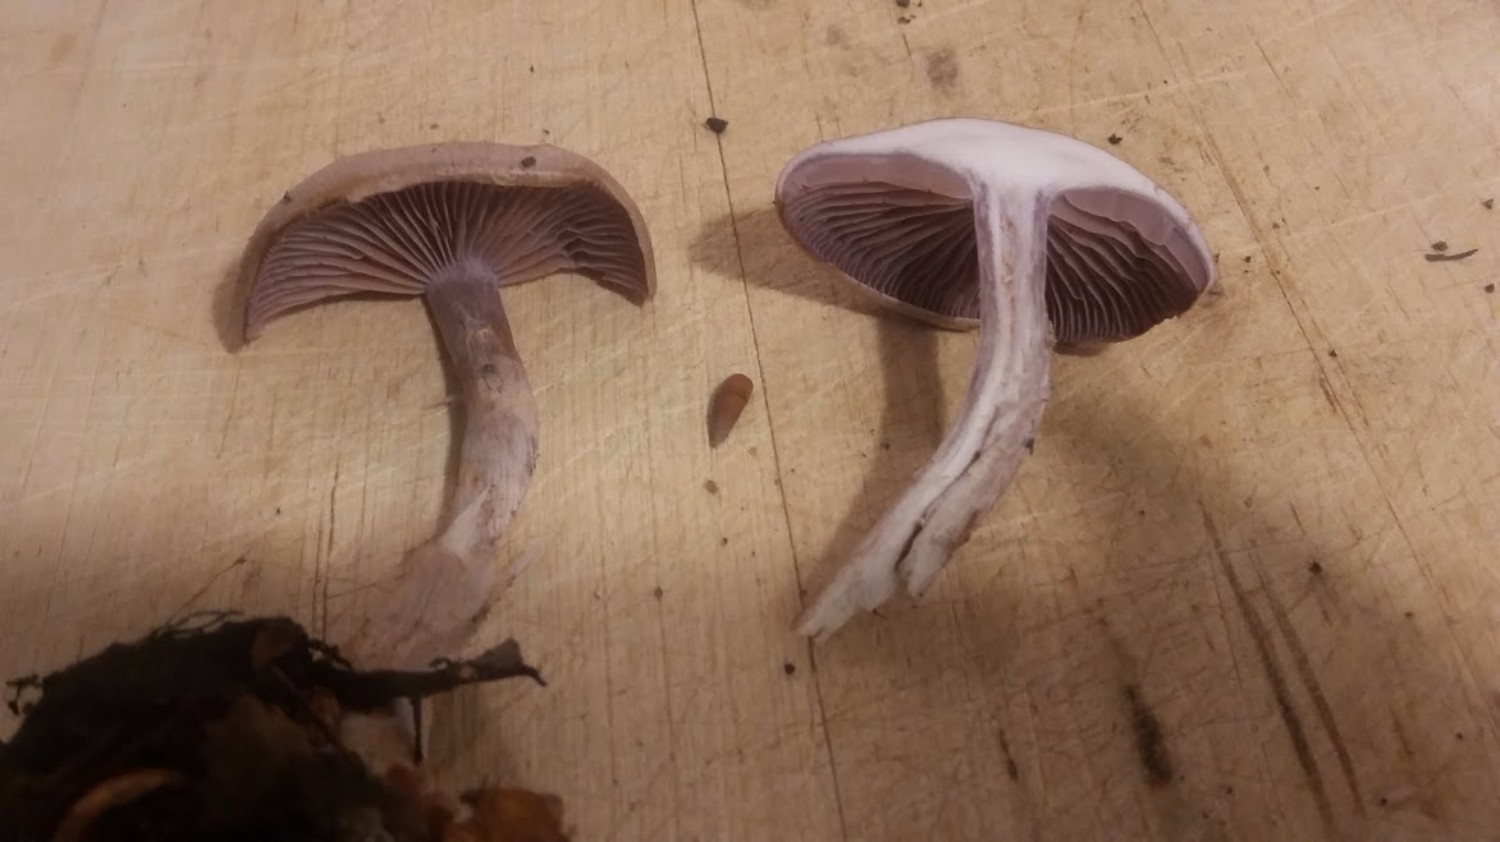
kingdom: Fungi
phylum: Basidiomycota
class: Agaricomycetes
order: Agaricales
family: Cortinariaceae
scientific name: Cortinariaceae
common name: slørhatfamilien
